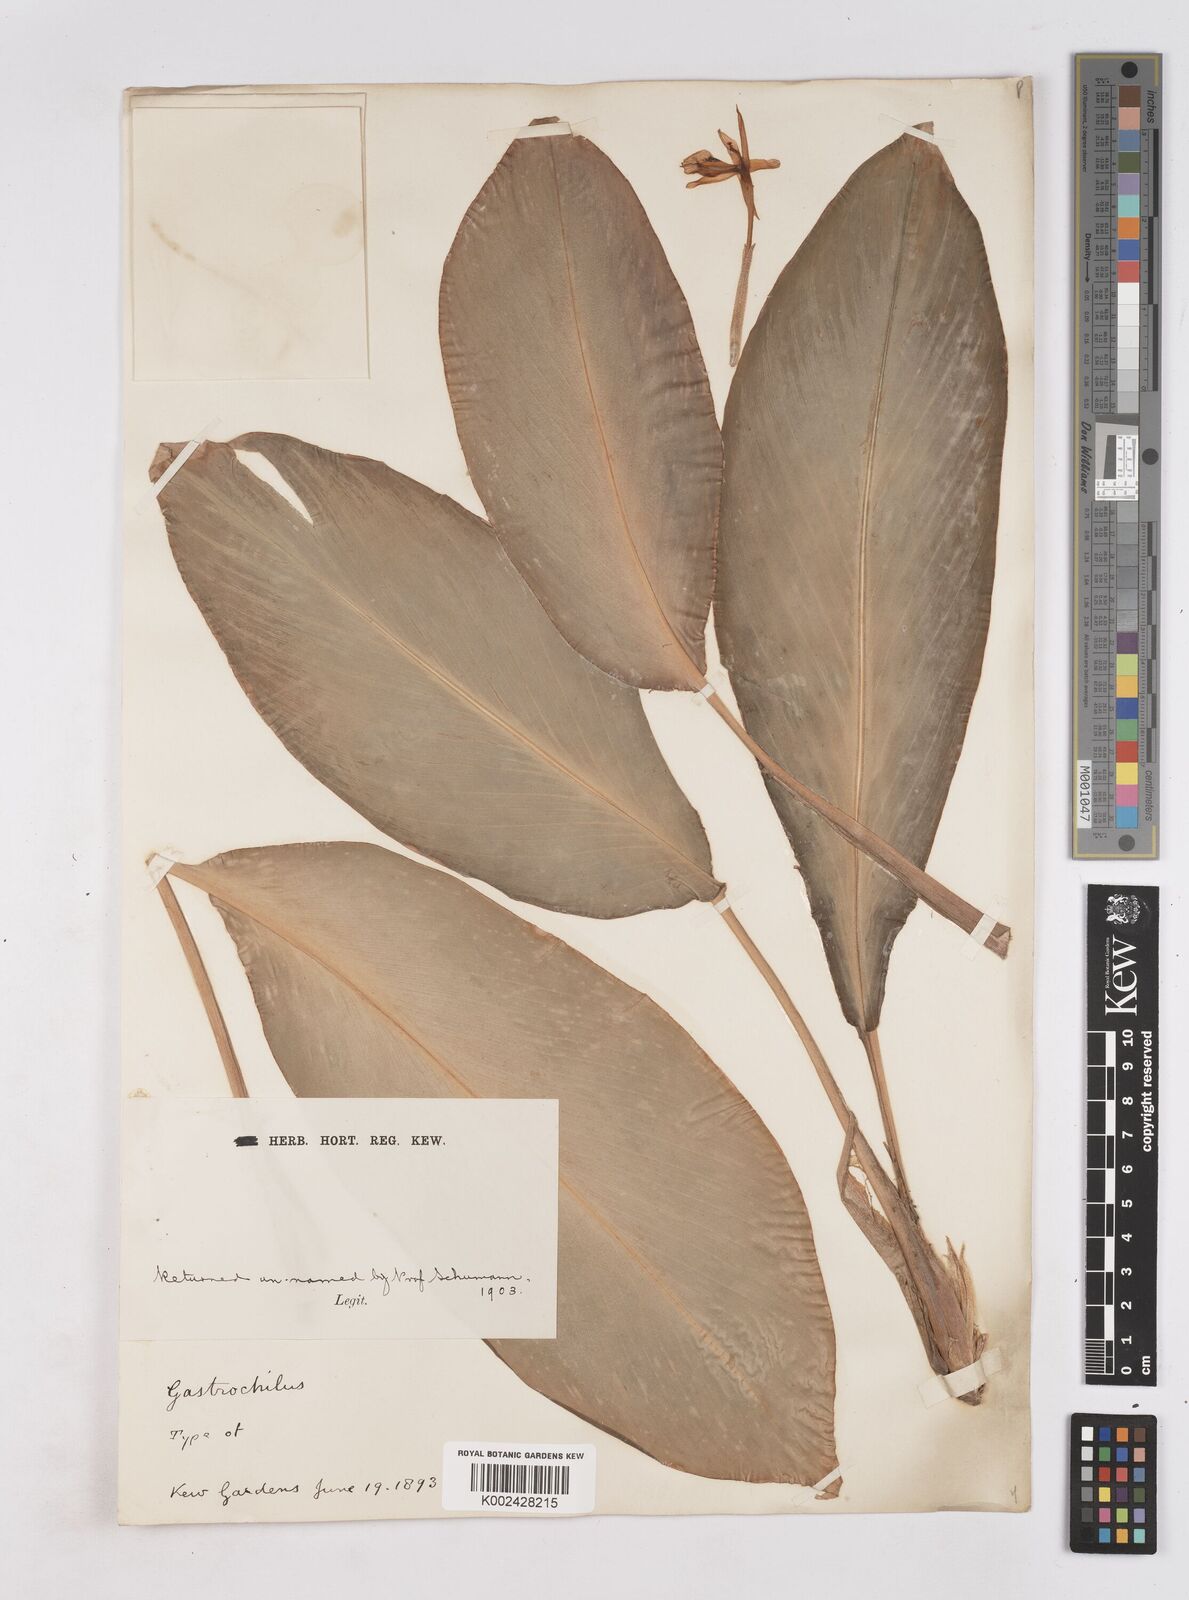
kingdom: Plantae
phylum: Tracheophyta
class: Liliopsida
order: Zingiberales
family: Zingiberaceae
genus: Boesenbergia
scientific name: Boesenbergia
